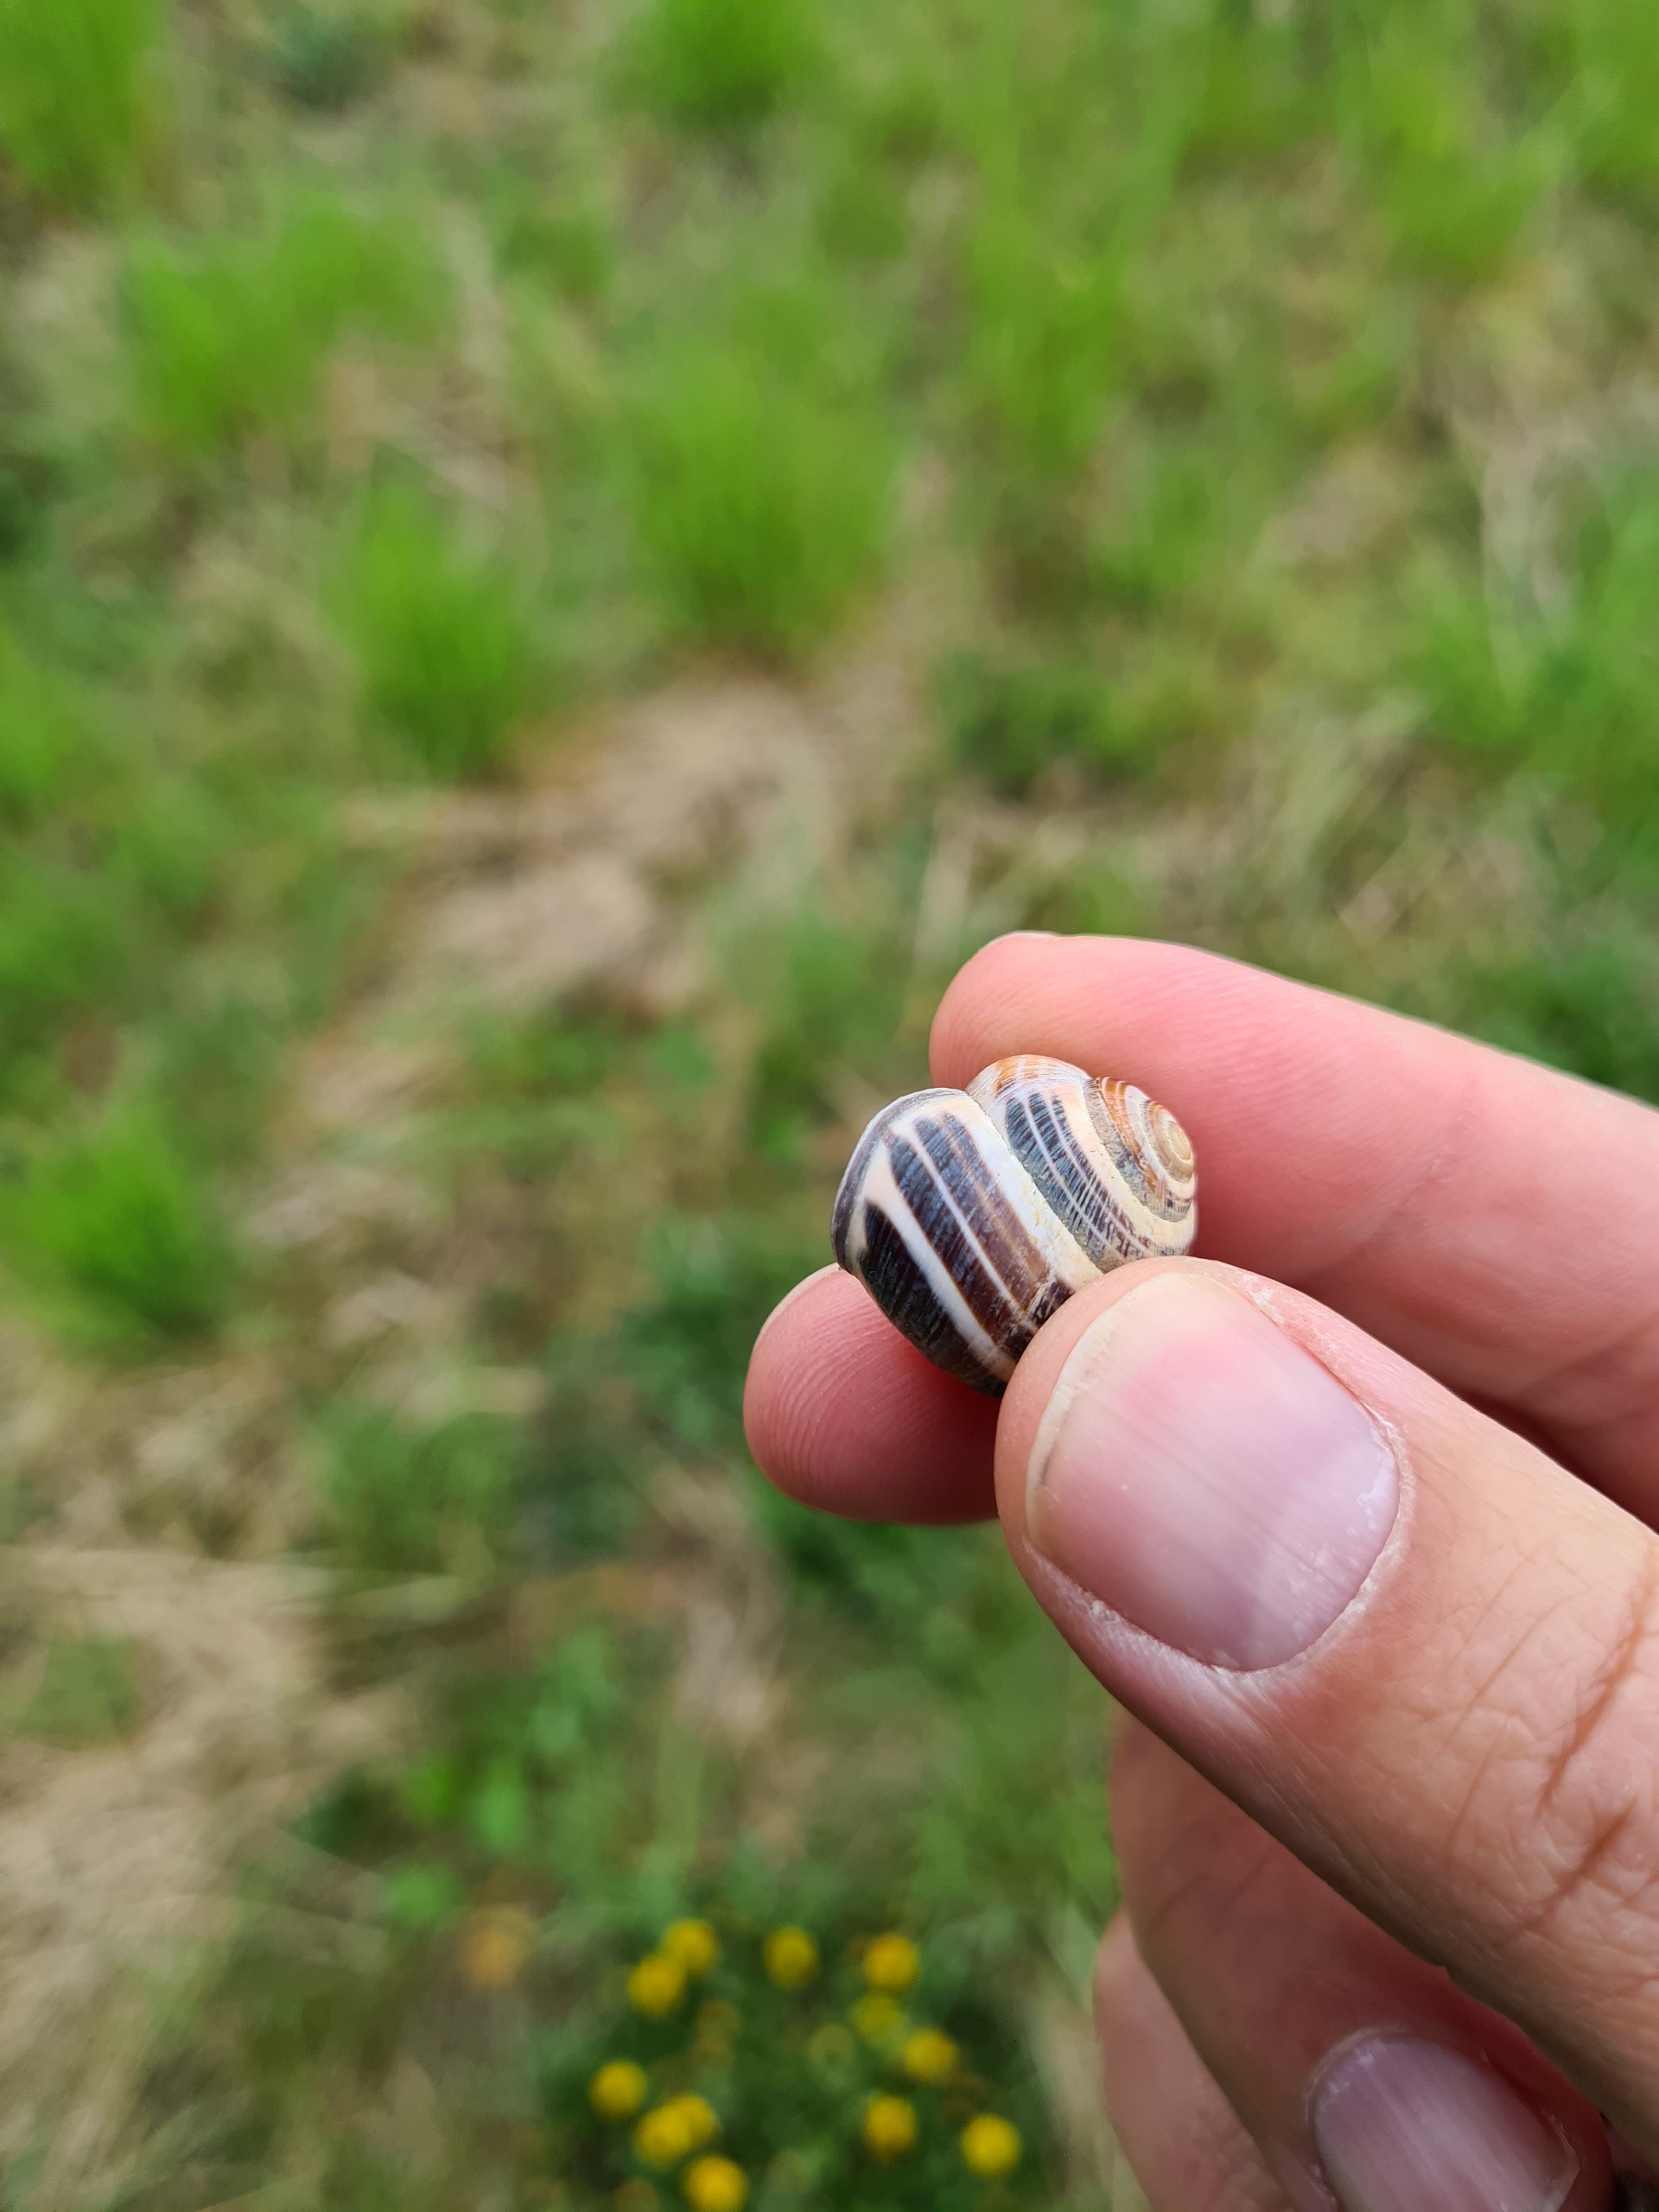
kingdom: Animalia
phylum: Mollusca
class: Gastropoda
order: Stylommatophora
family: Helicidae
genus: Cepaea
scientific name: Cepaea nemoralis
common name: Lundsnegl
